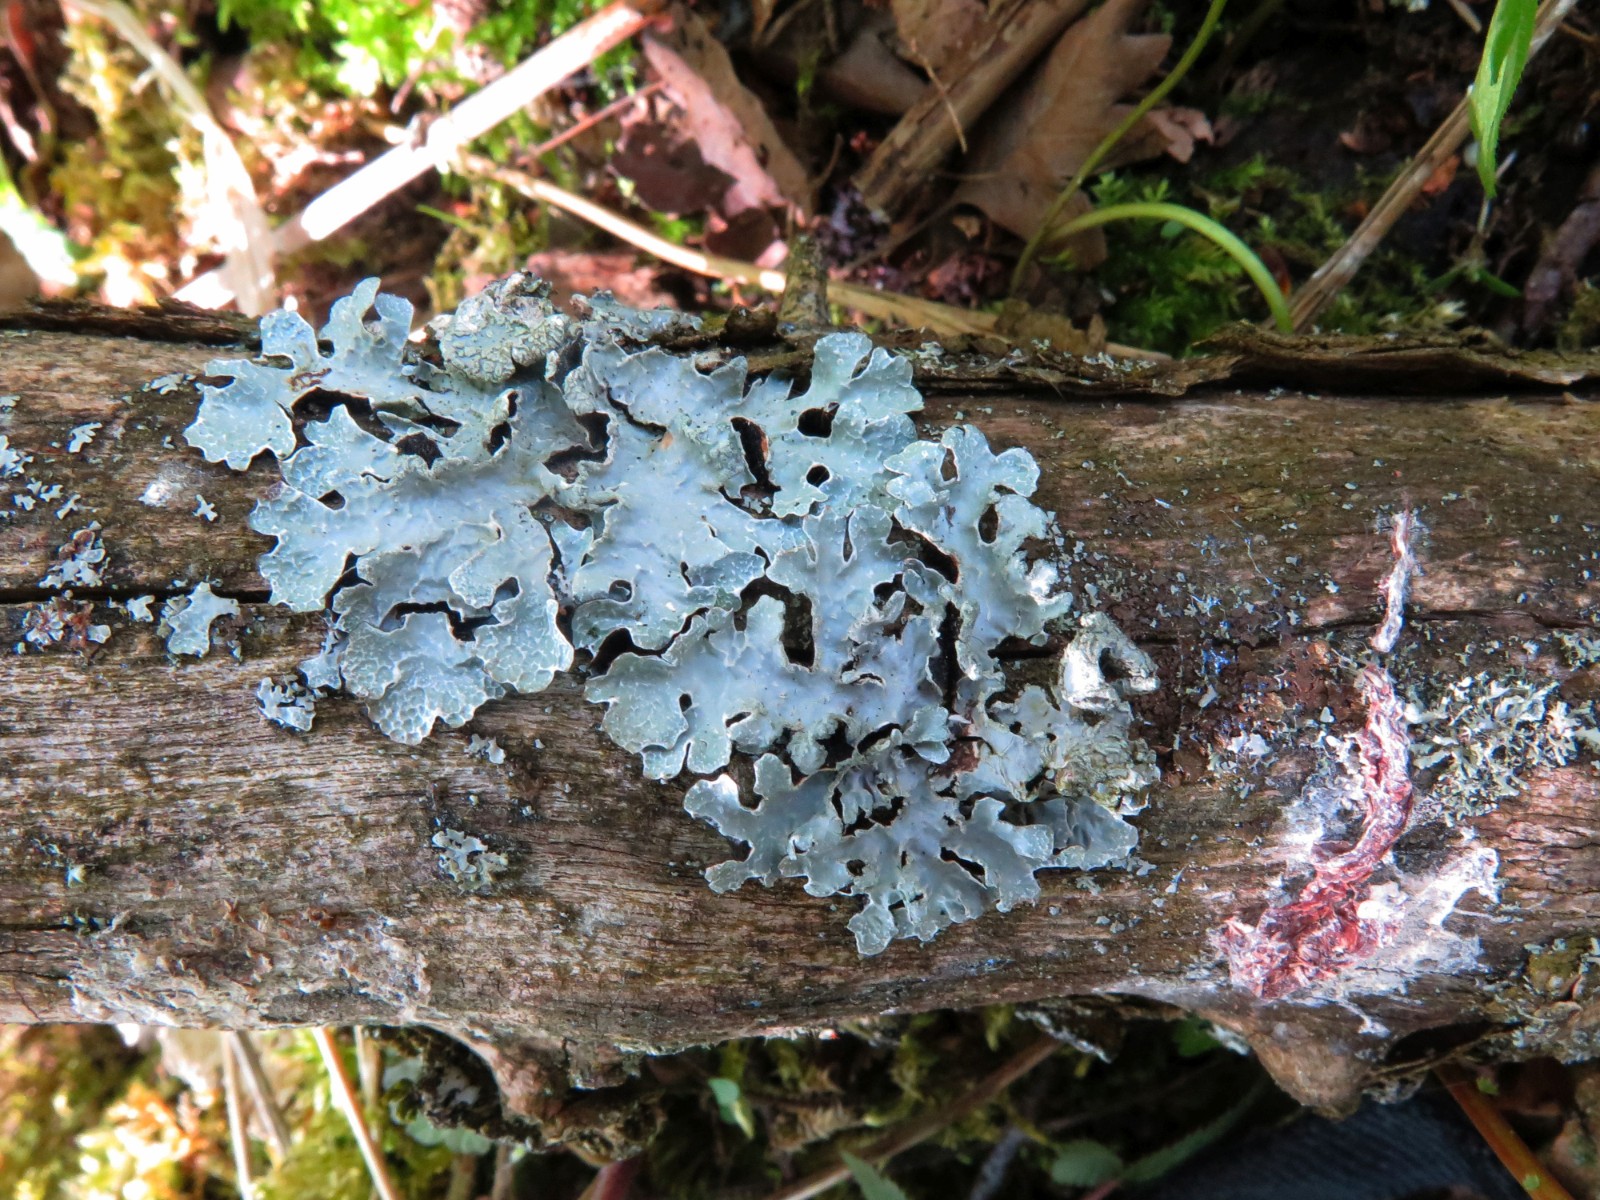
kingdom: Fungi
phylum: Ascomycota
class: Lecanoromycetes
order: Lecanorales
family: Parmeliaceae
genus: Parmelia
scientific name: Parmelia sulcata
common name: rynket skållav
